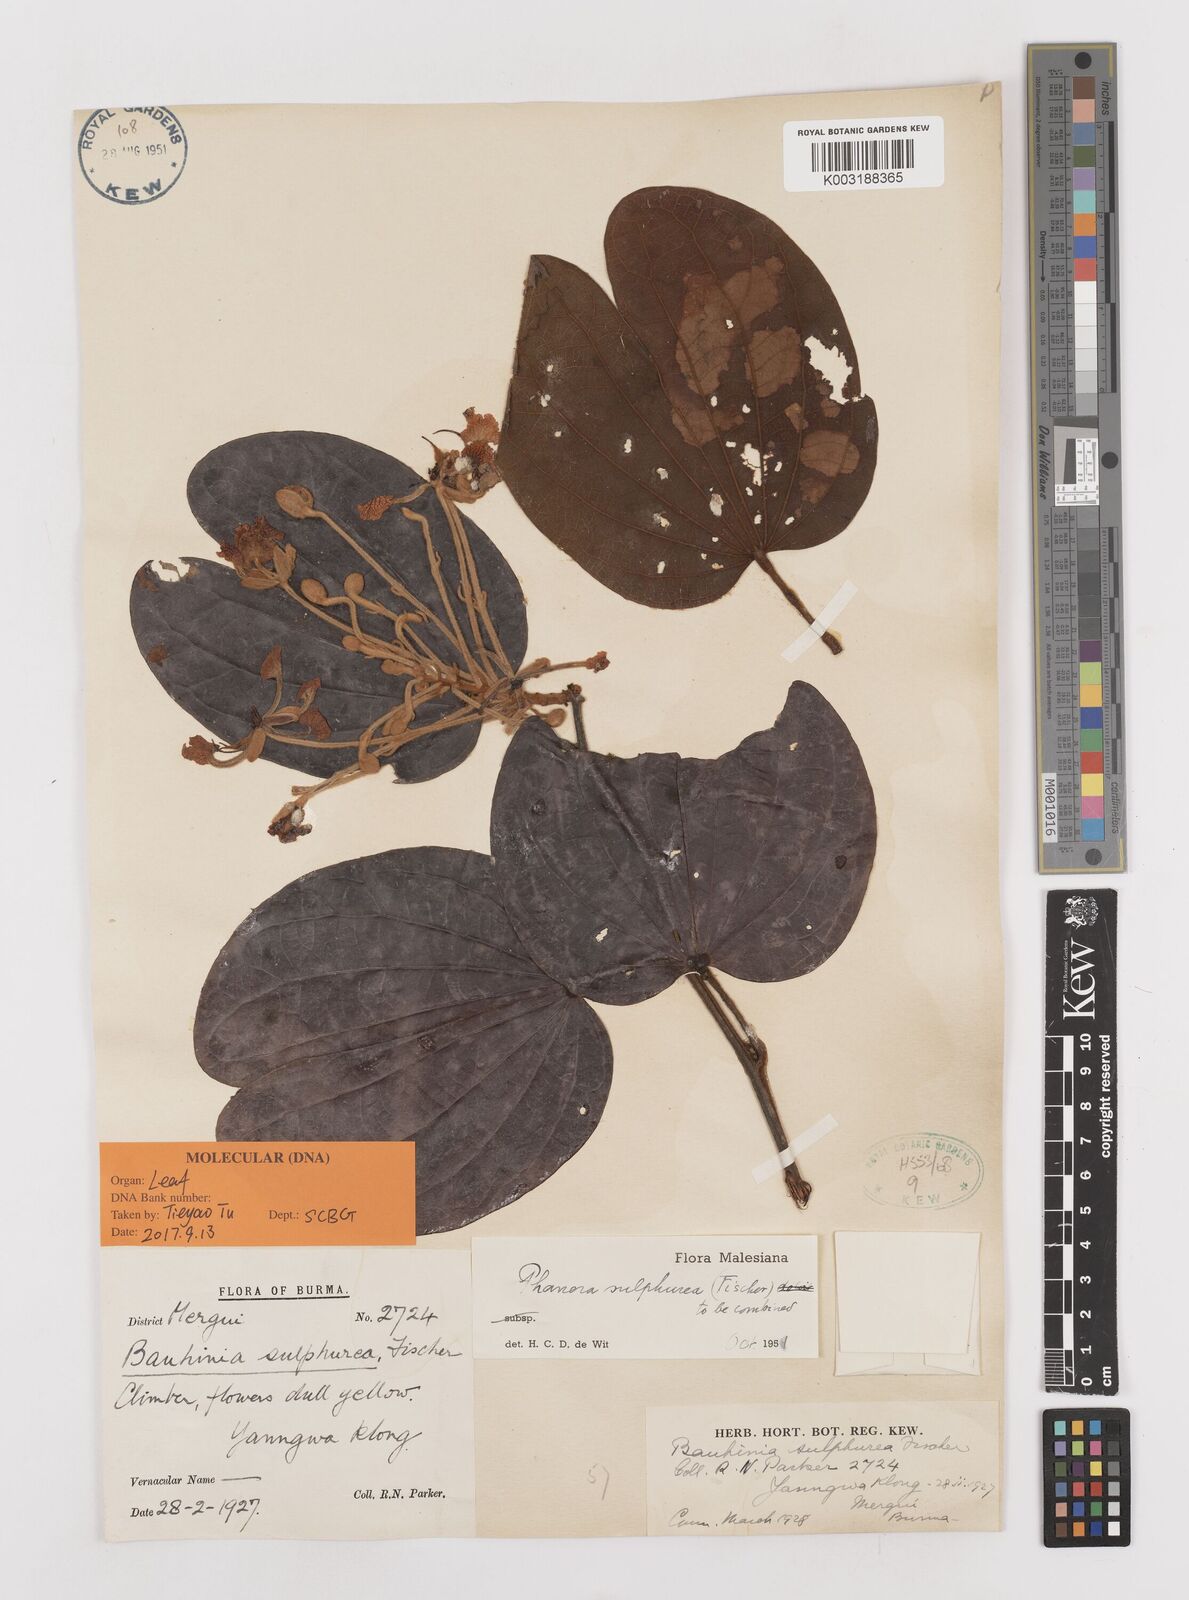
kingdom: Plantae
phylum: Tracheophyta
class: Magnoliopsida
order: Fabales
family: Fabaceae
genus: Phanera
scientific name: Phanera sulphurea
